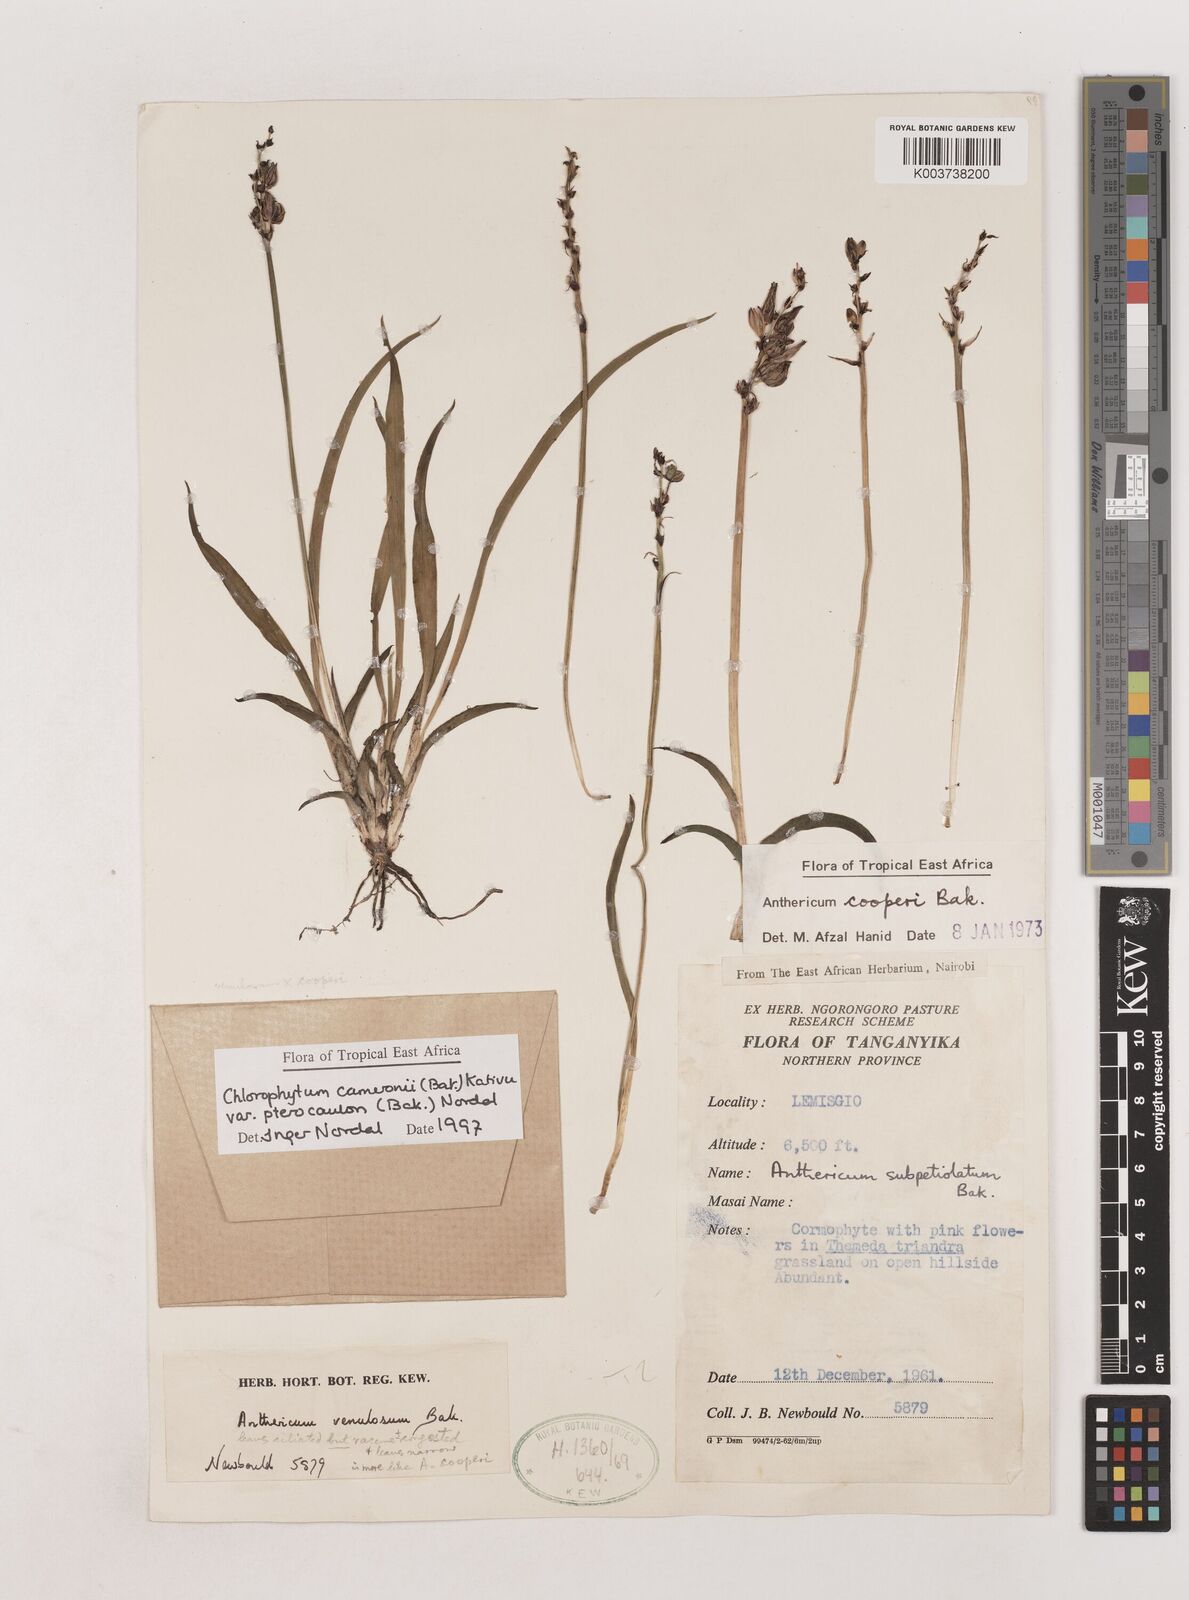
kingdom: Plantae
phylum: Tracheophyta
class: Liliopsida
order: Asparagales
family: Asparagaceae
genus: Chlorophytum
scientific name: Chlorophytum cameronii
